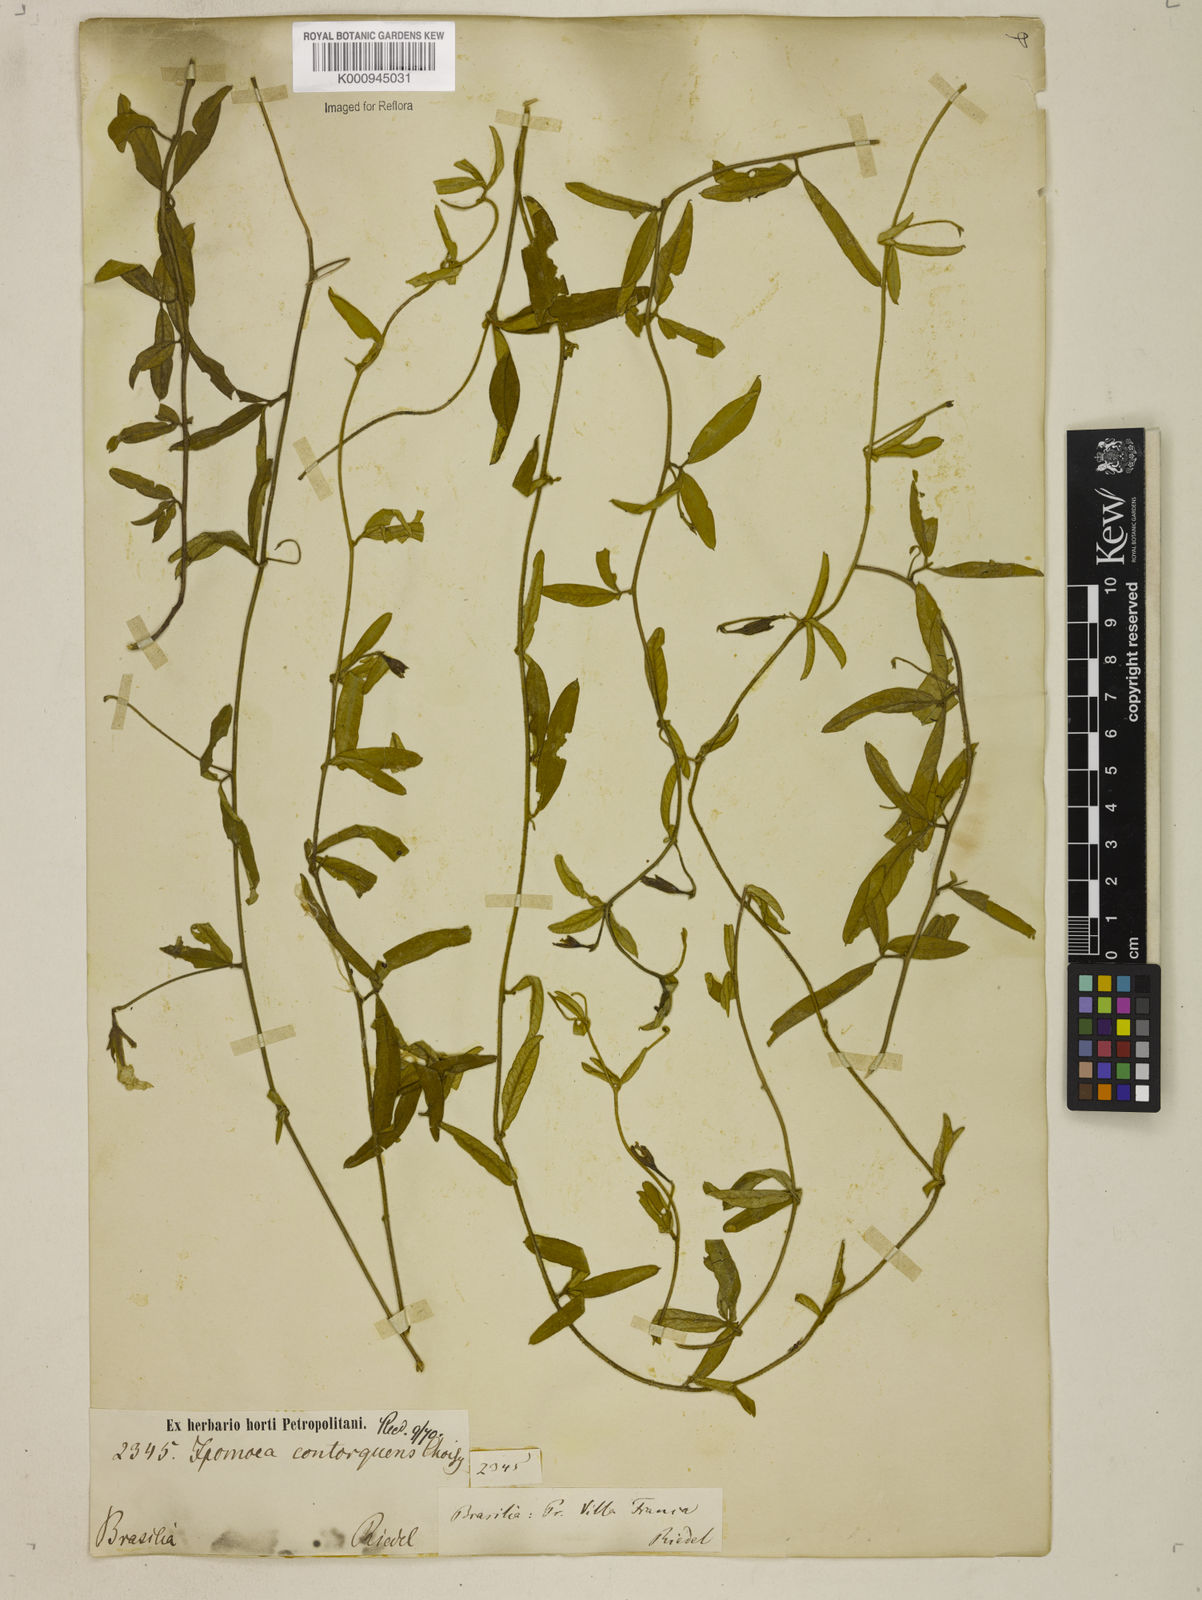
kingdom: Plantae
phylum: Tracheophyta
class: Magnoliopsida
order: Solanales
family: Convolvulaceae
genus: Distimake
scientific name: Distimake contorquens
